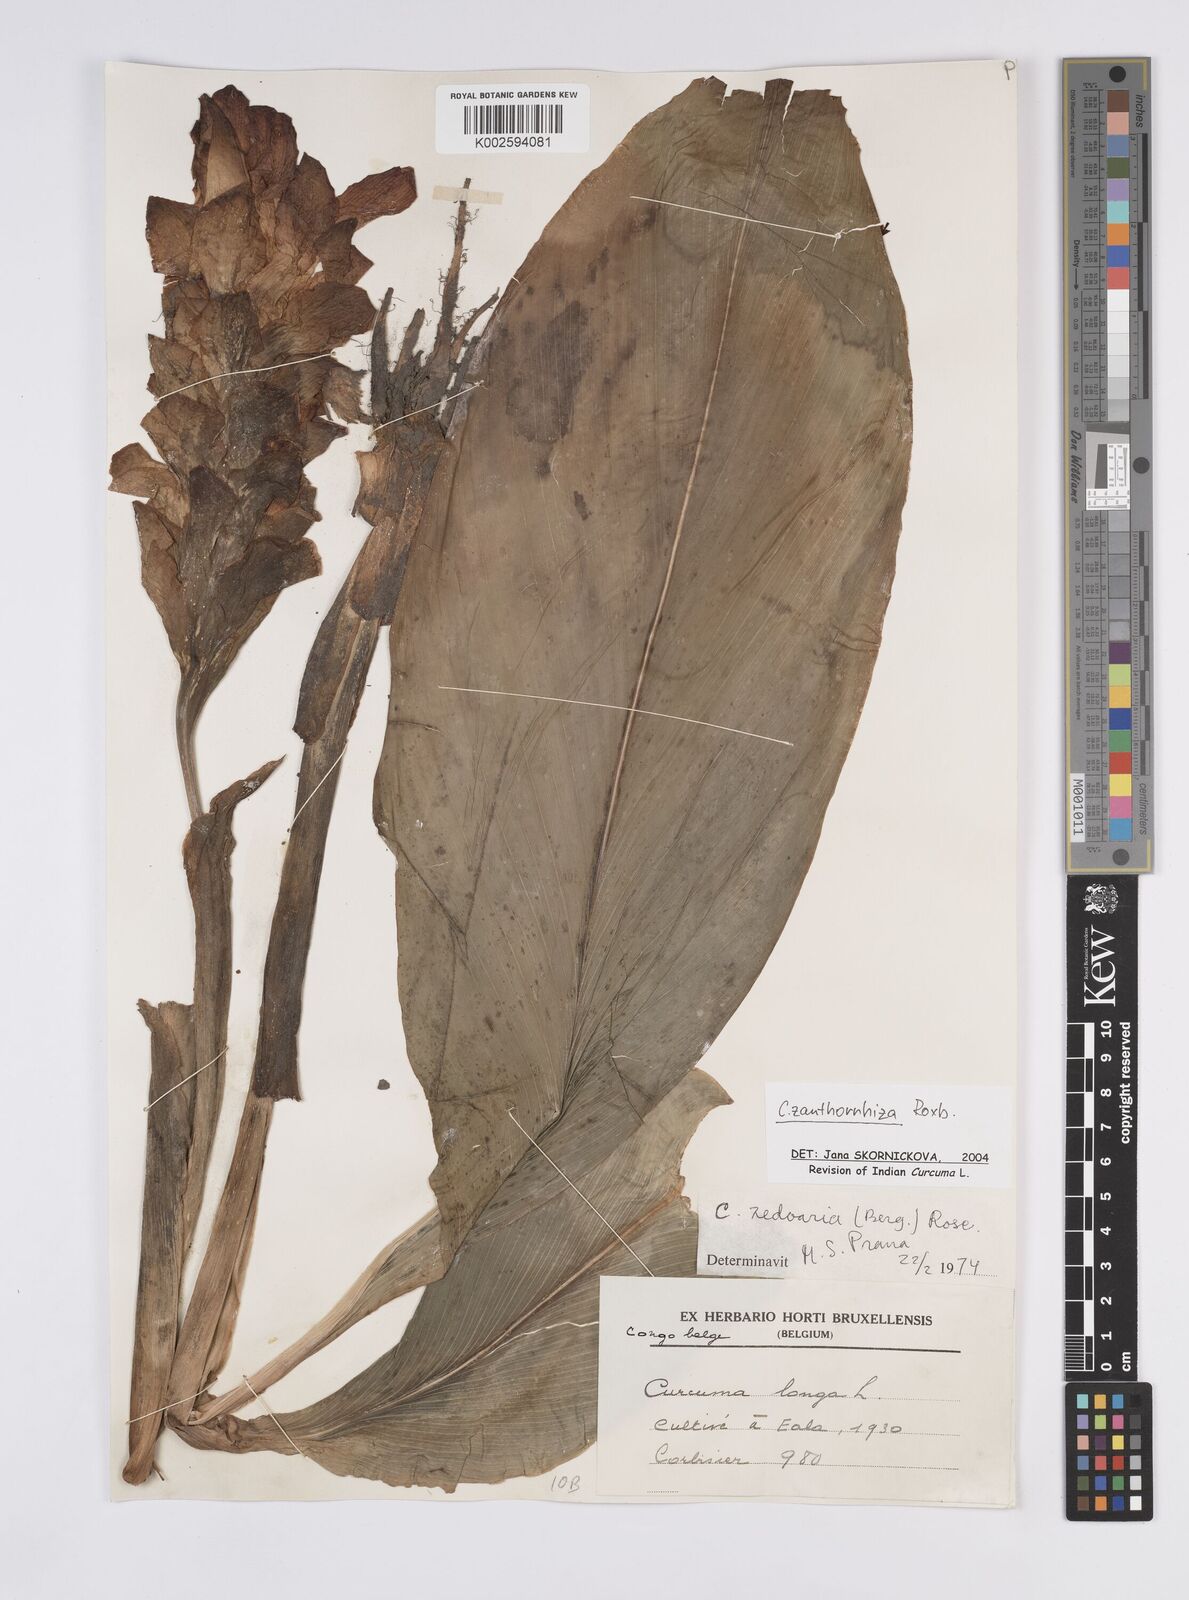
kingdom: Plantae
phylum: Tracheophyta
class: Liliopsida
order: Zingiberales
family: Zingiberaceae
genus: Curcuma
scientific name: Curcuma zanthorrhiza
